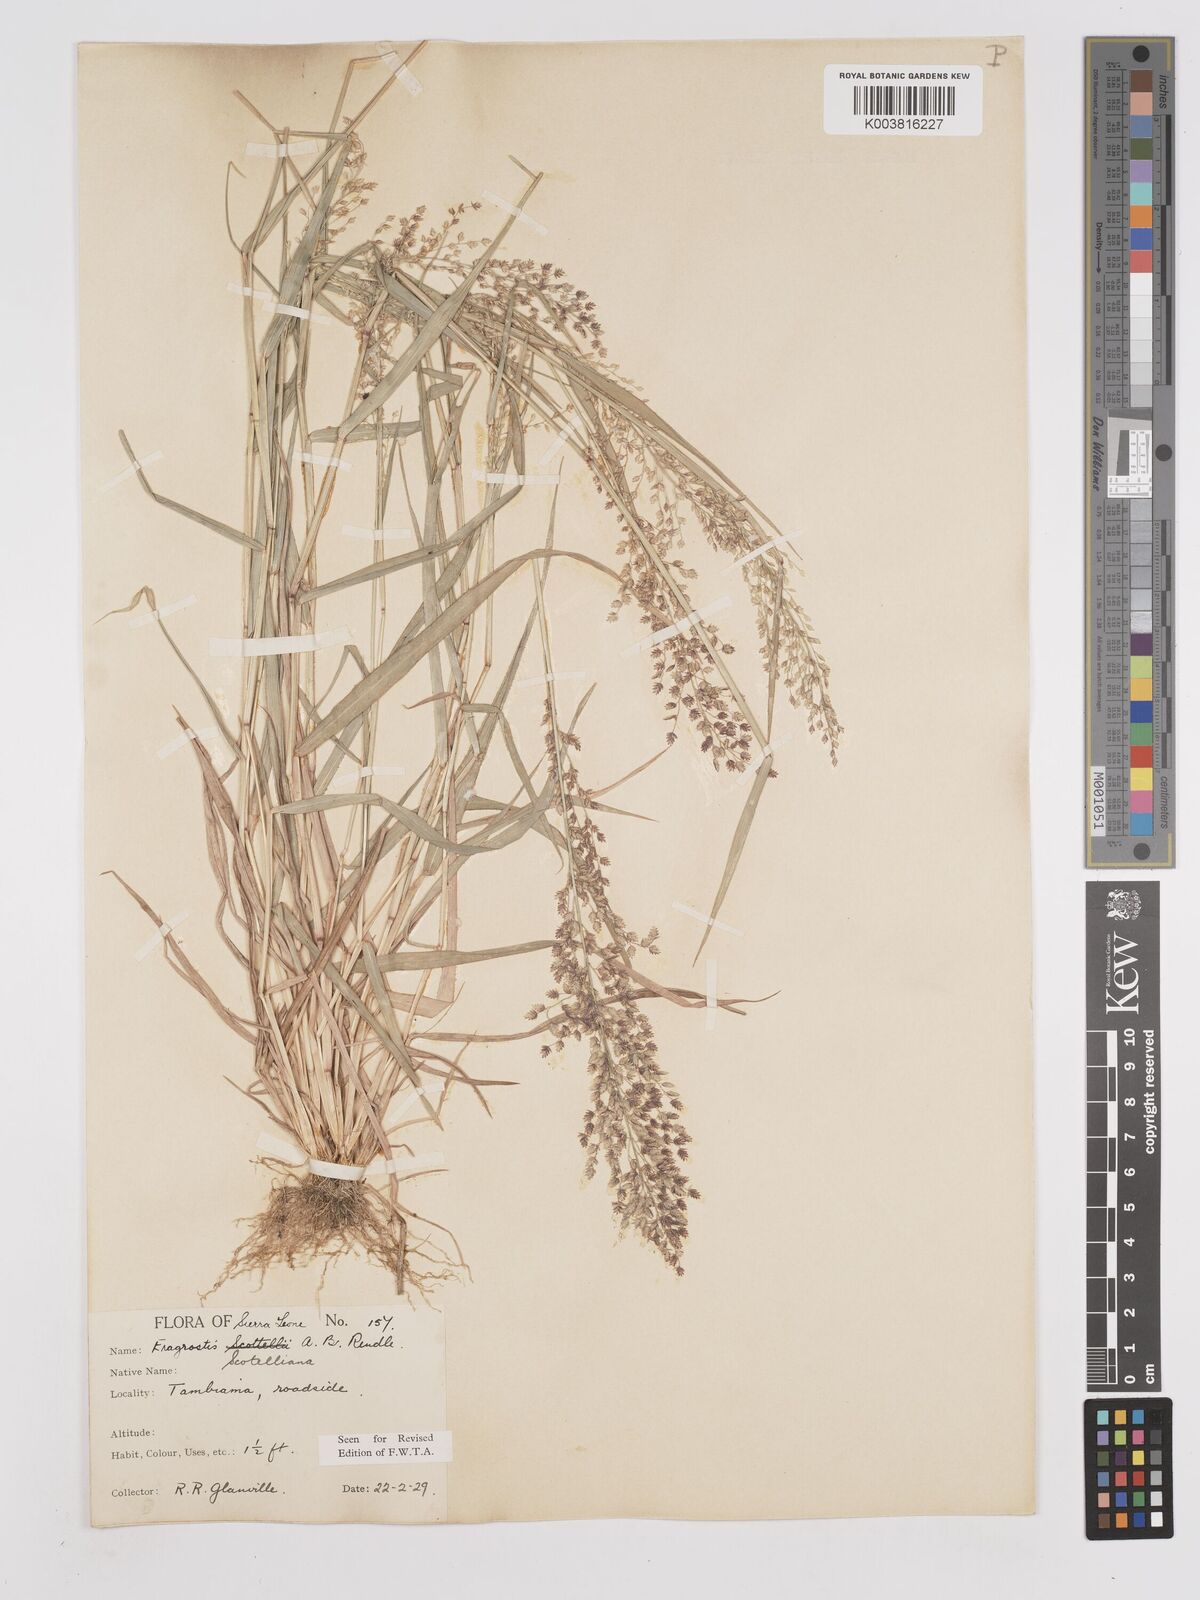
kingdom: Plantae
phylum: Tracheophyta
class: Liliopsida
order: Poales
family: Poaceae
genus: Eragrostis
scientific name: Eragrostis scotelliana
